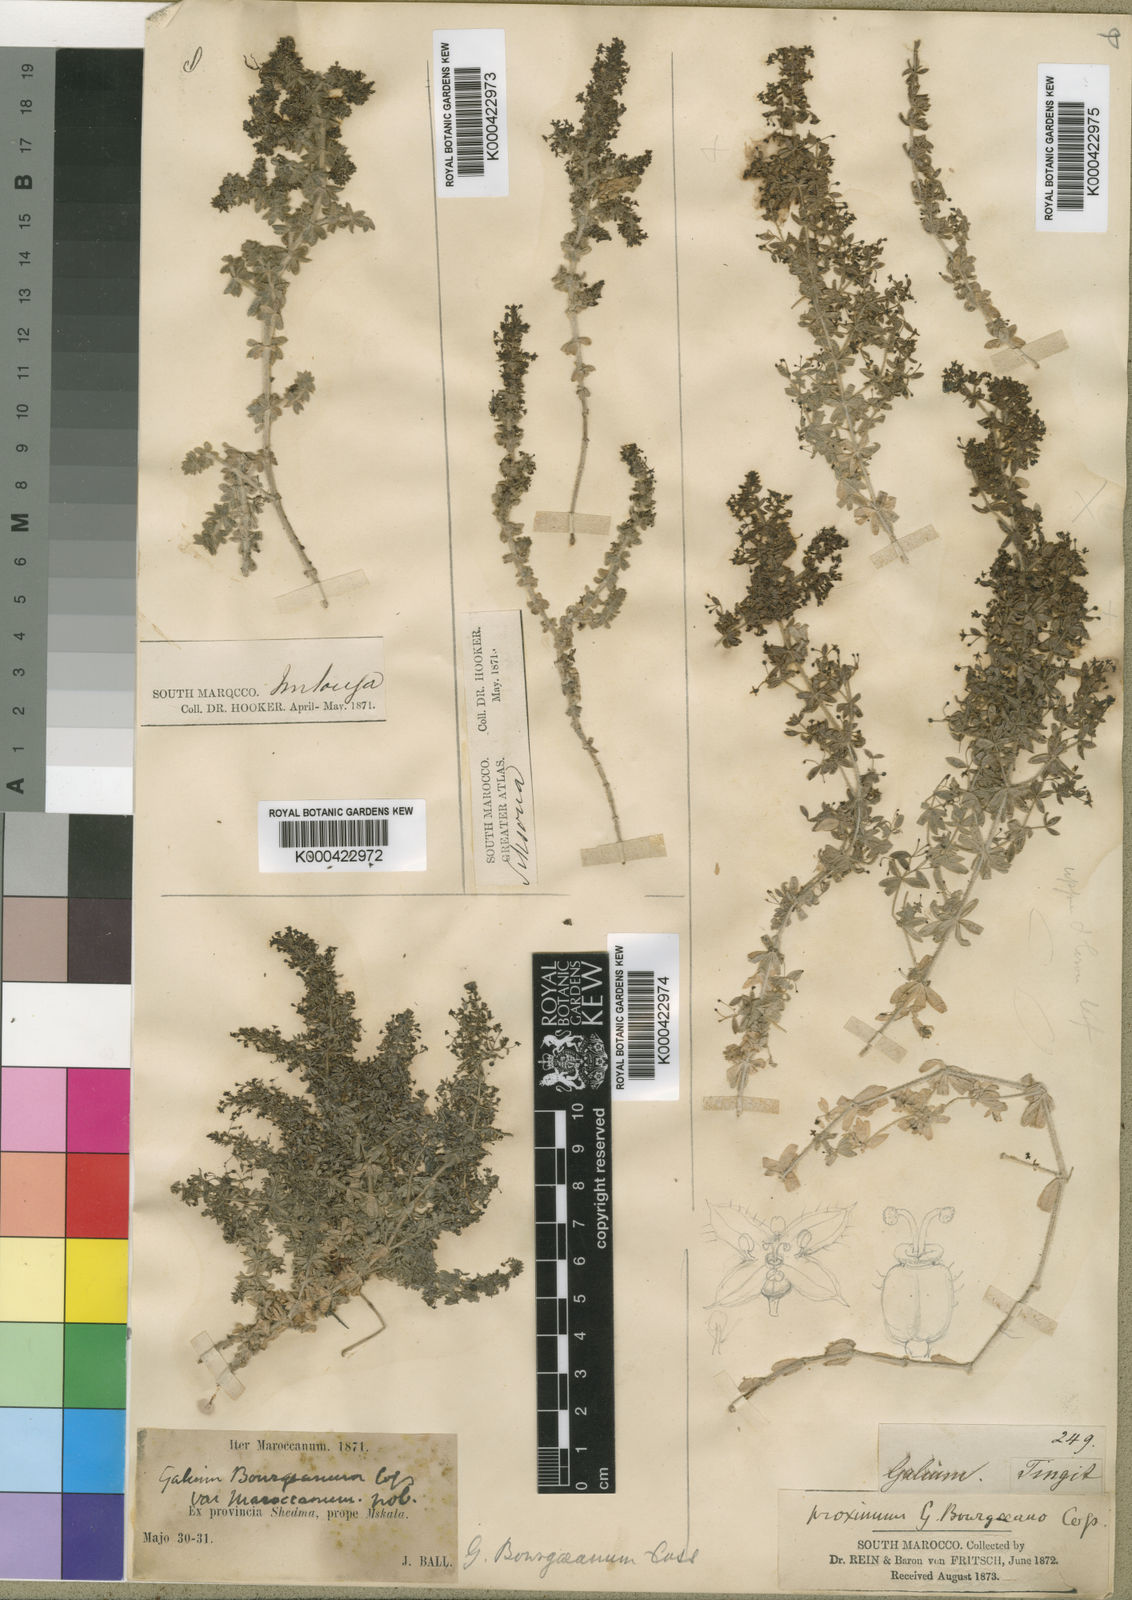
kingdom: Plantae
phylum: Tracheophyta
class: Magnoliopsida
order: Gentianales
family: Rubiaceae
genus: Galium
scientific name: Galium
